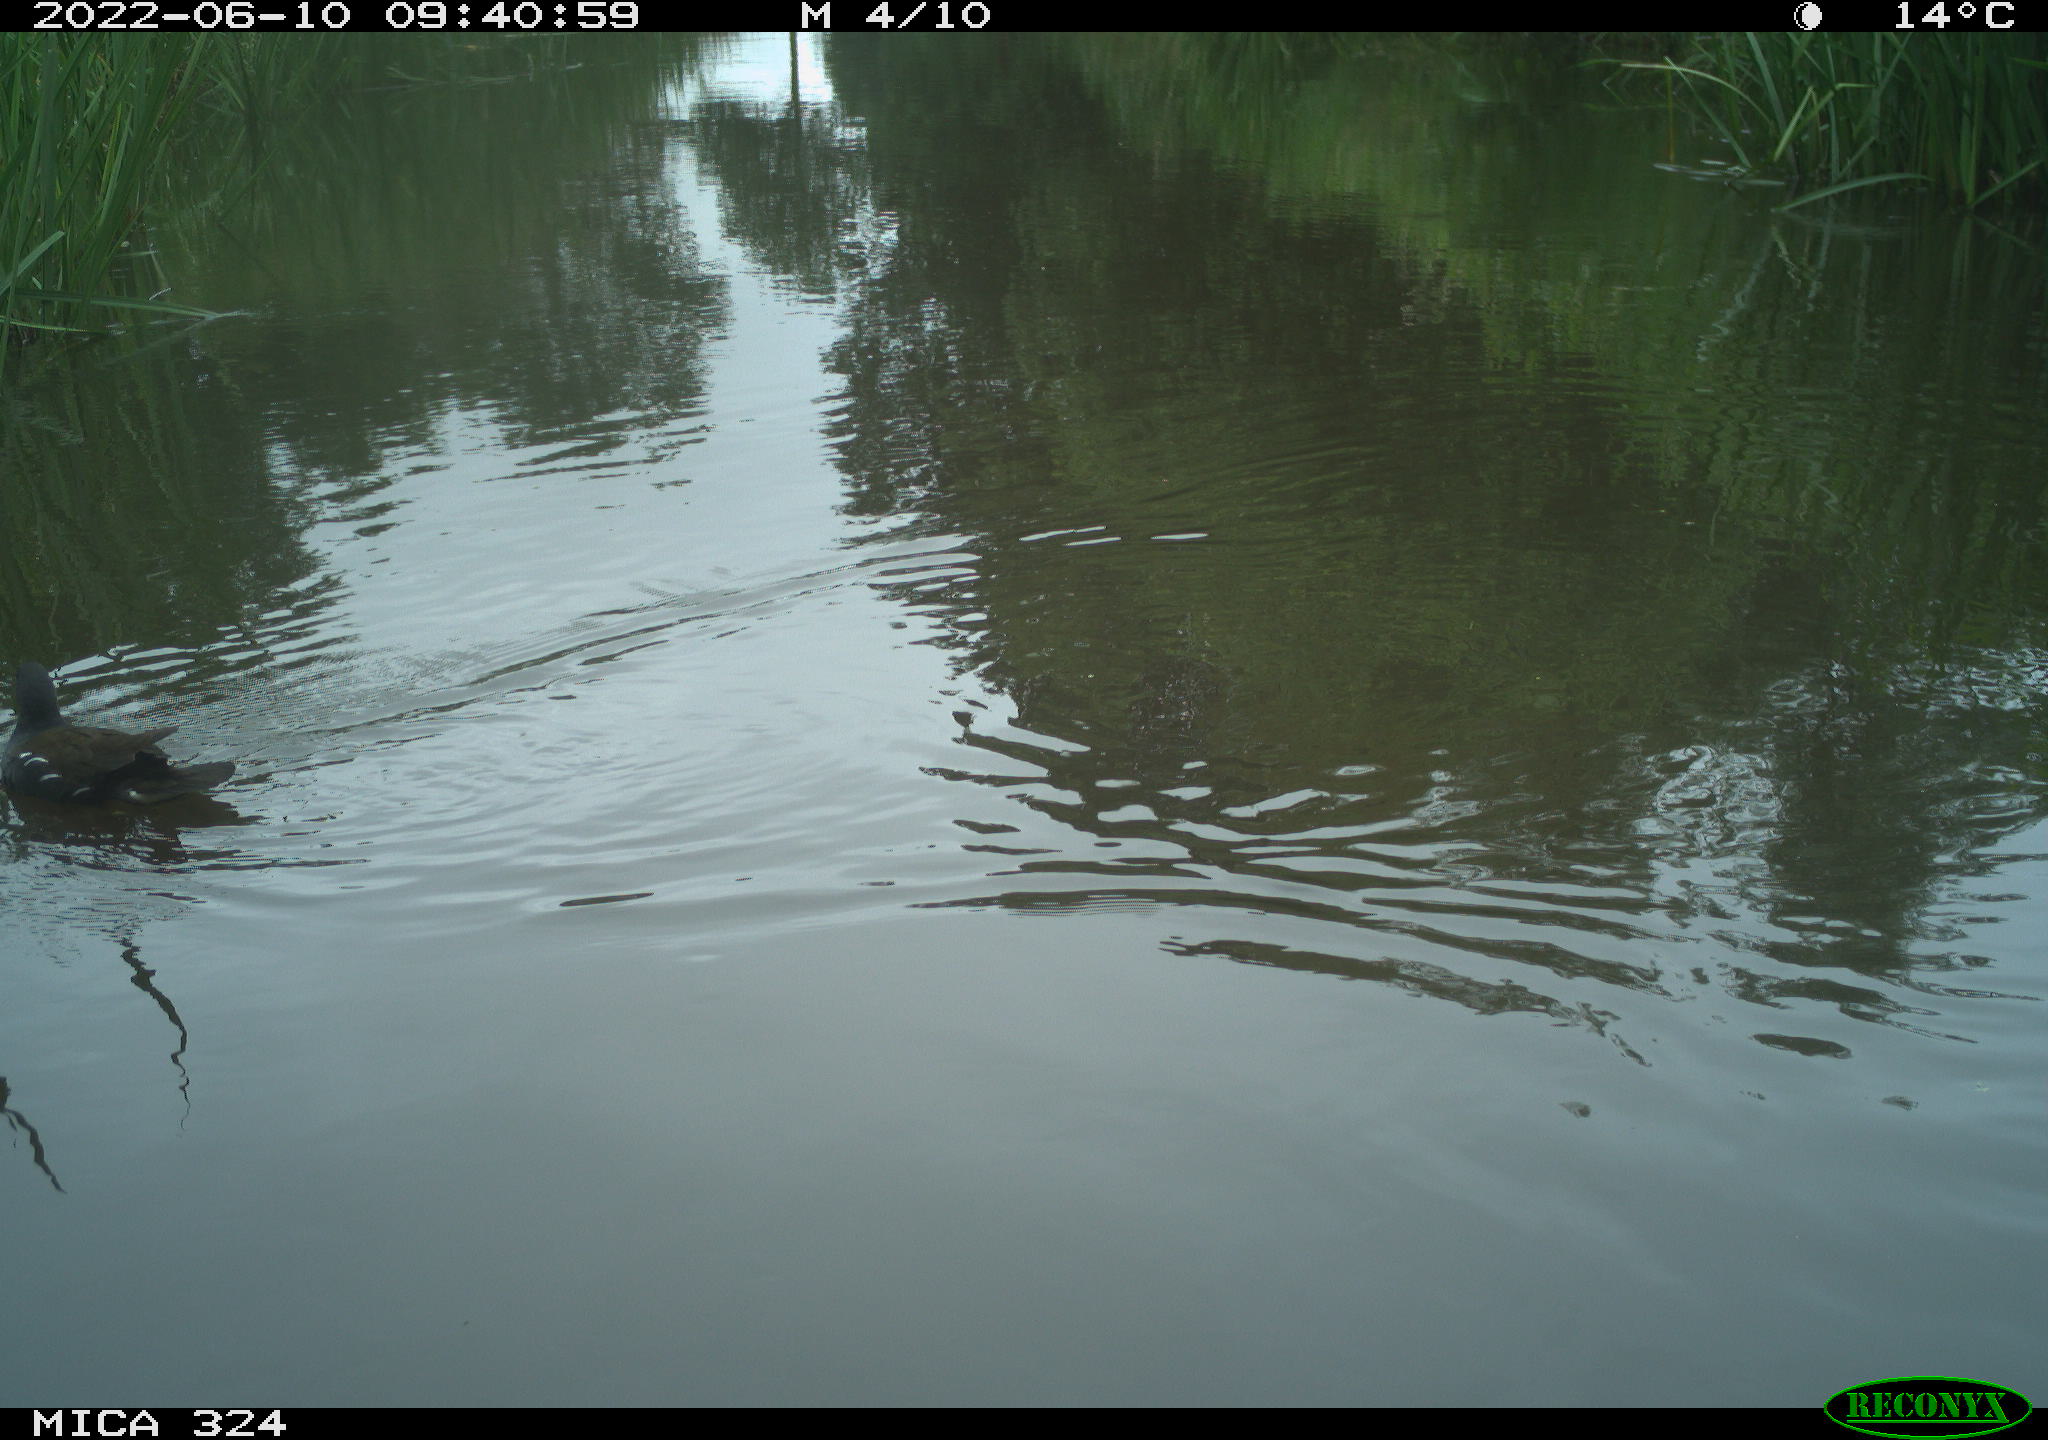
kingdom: Animalia
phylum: Chordata
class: Aves
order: Gruiformes
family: Rallidae
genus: Gallinula
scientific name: Gallinula chloropus
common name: Common moorhen
